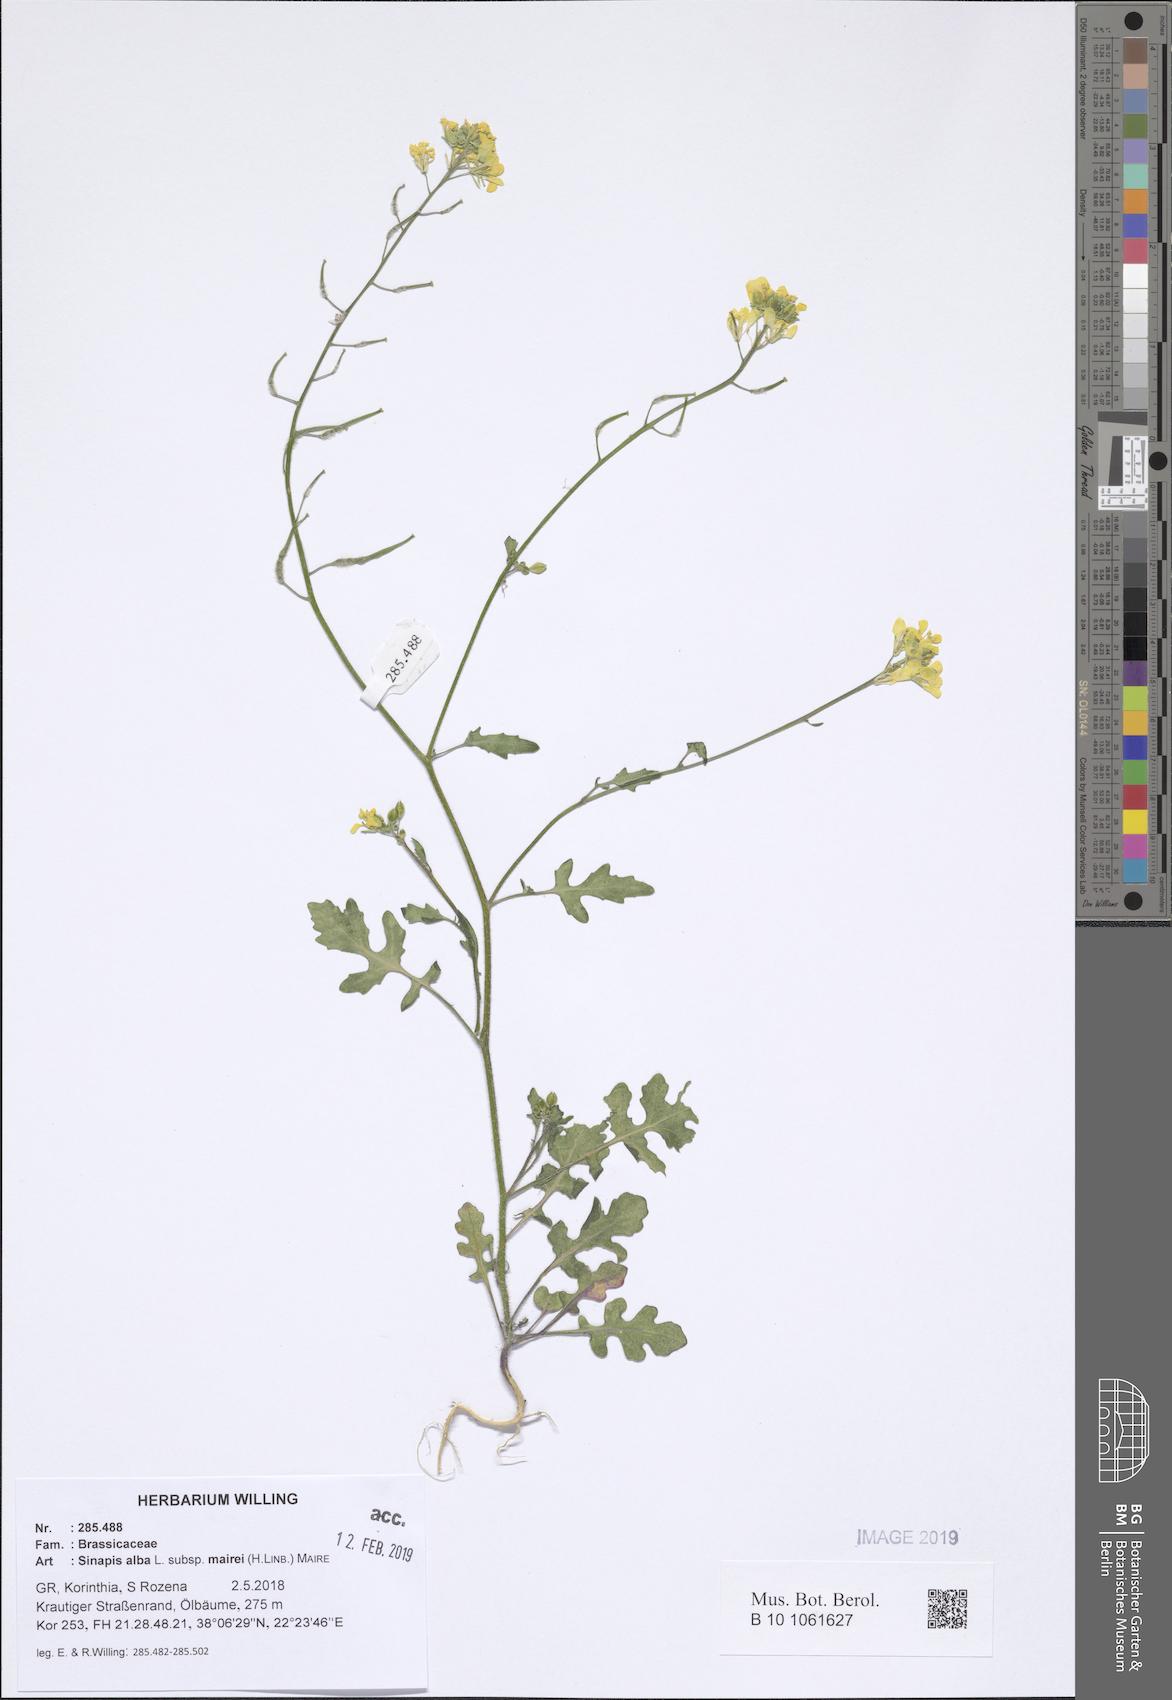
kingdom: Plantae
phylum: Tracheophyta
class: Magnoliopsida
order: Brassicales
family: Brassicaceae
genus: Sinapis
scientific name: Sinapis alba
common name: White mustard
